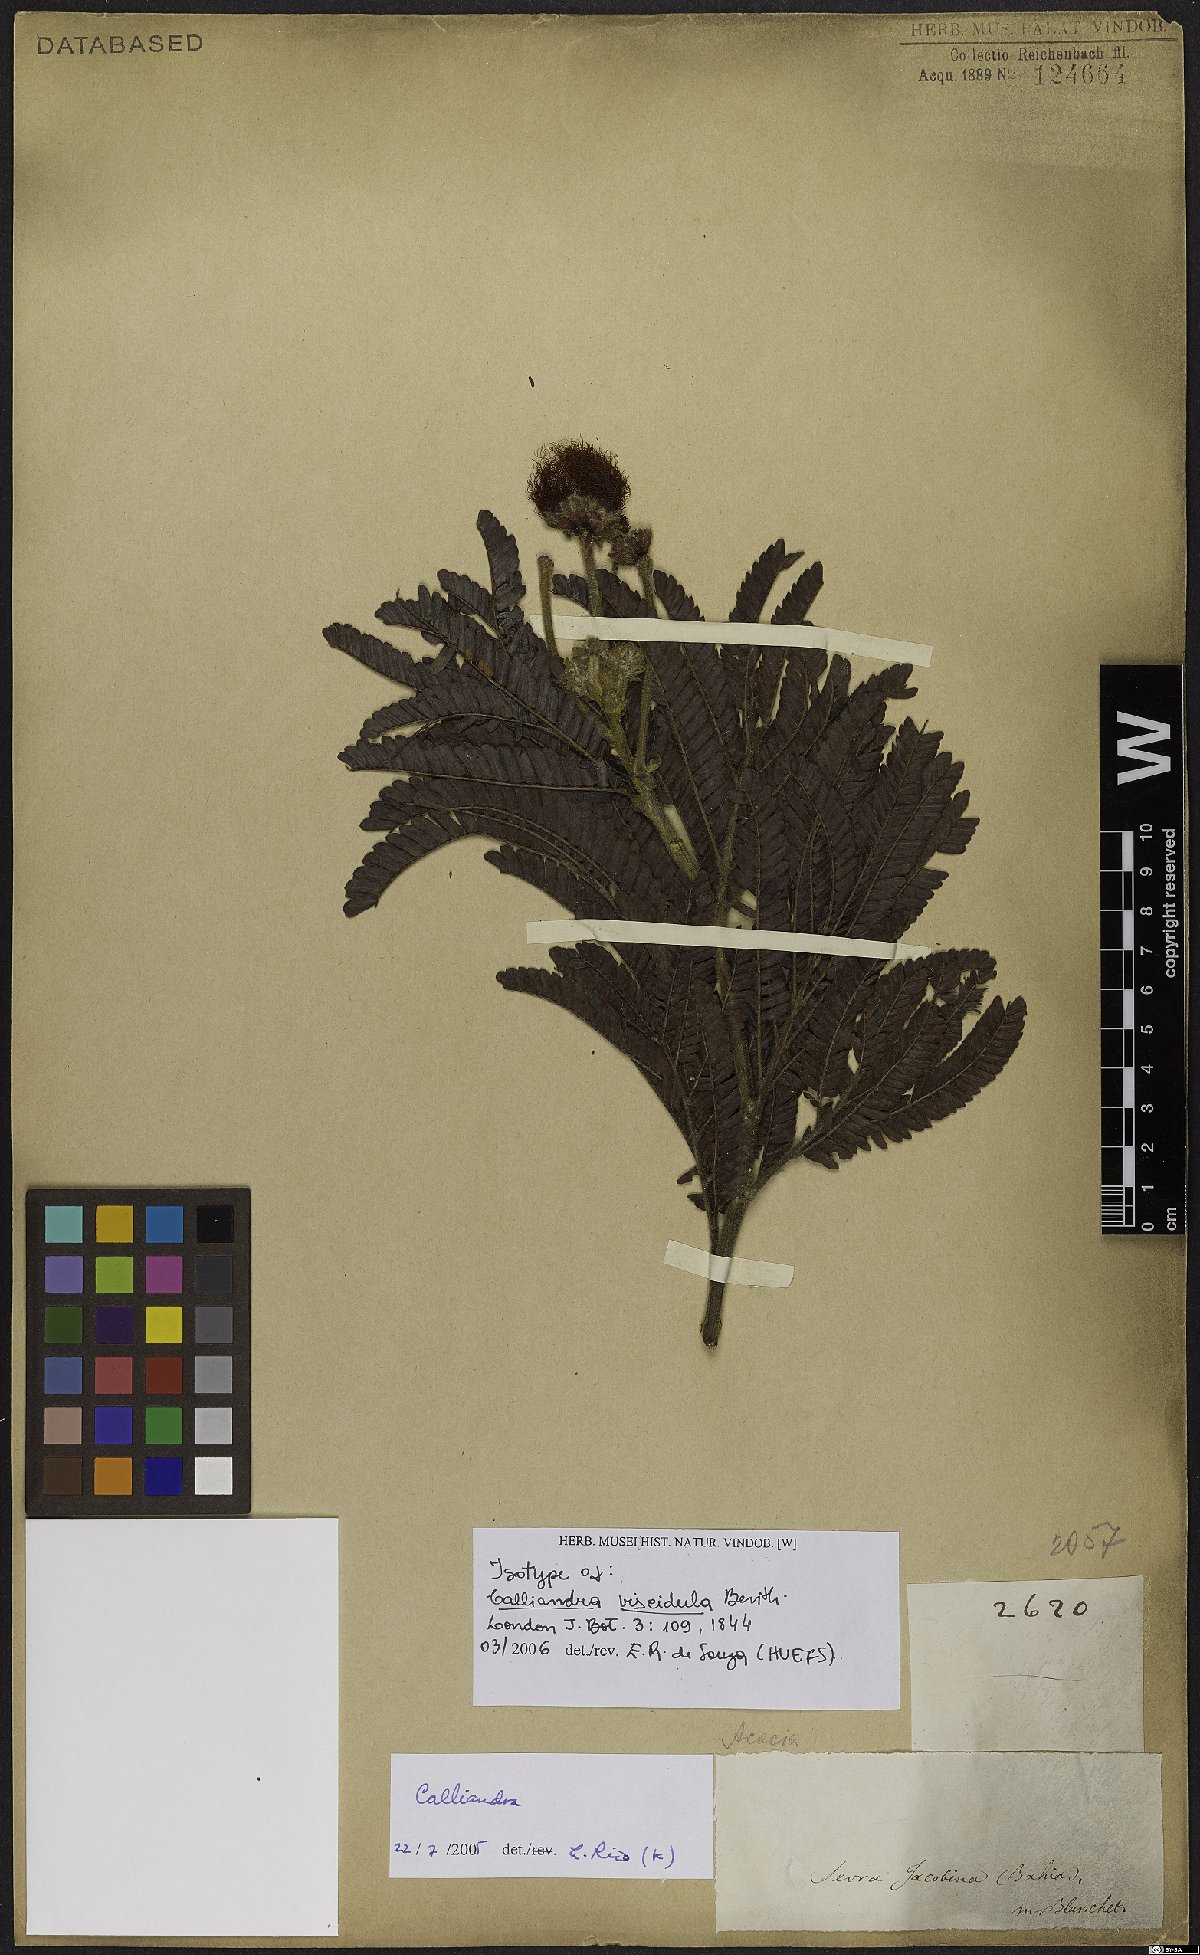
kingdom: Plantae
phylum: Tracheophyta
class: Magnoliopsida
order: Fabales
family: Fabaceae
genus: Calliandra
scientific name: Calliandra viscidula
